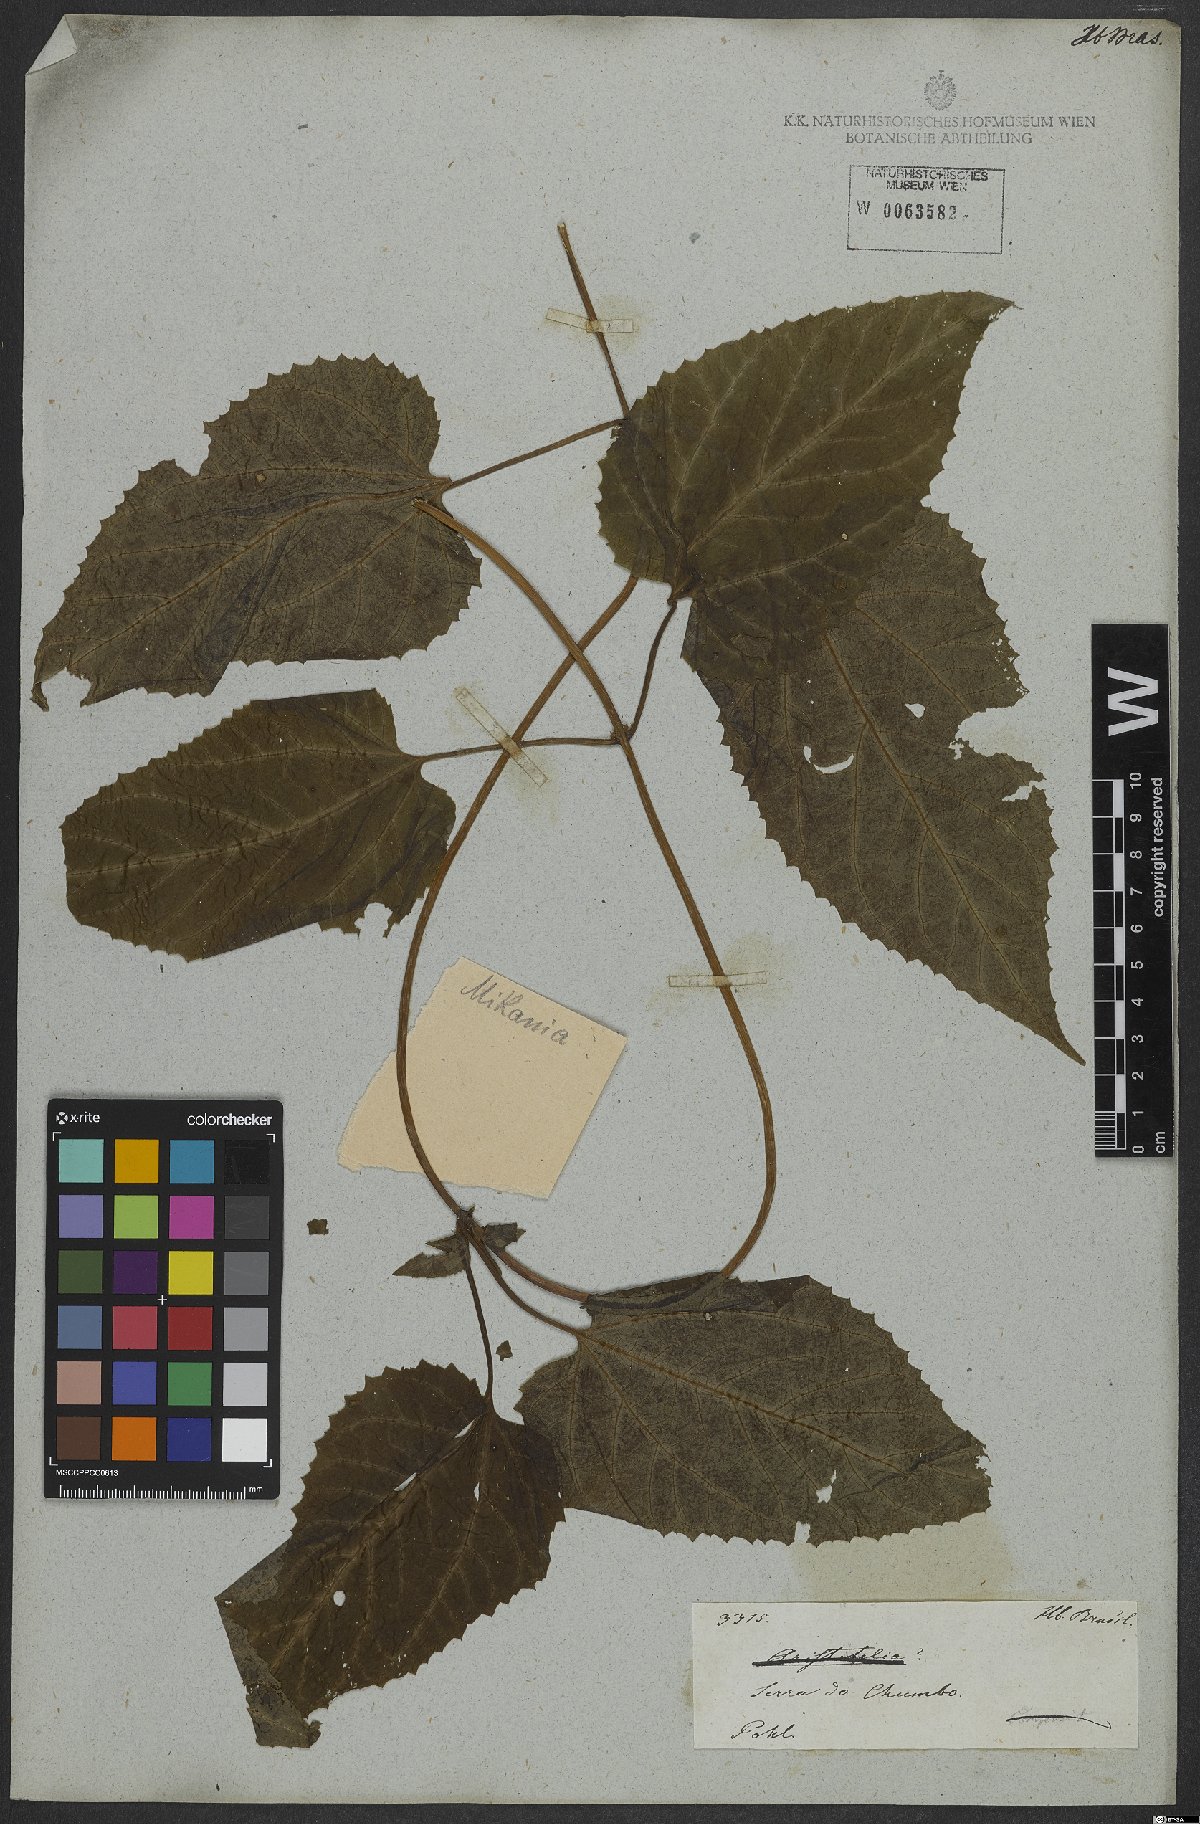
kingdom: Plantae
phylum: Tracheophyta
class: Magnoliopsida
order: Asterales
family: Asteraceae
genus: Mikania
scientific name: Mikania
